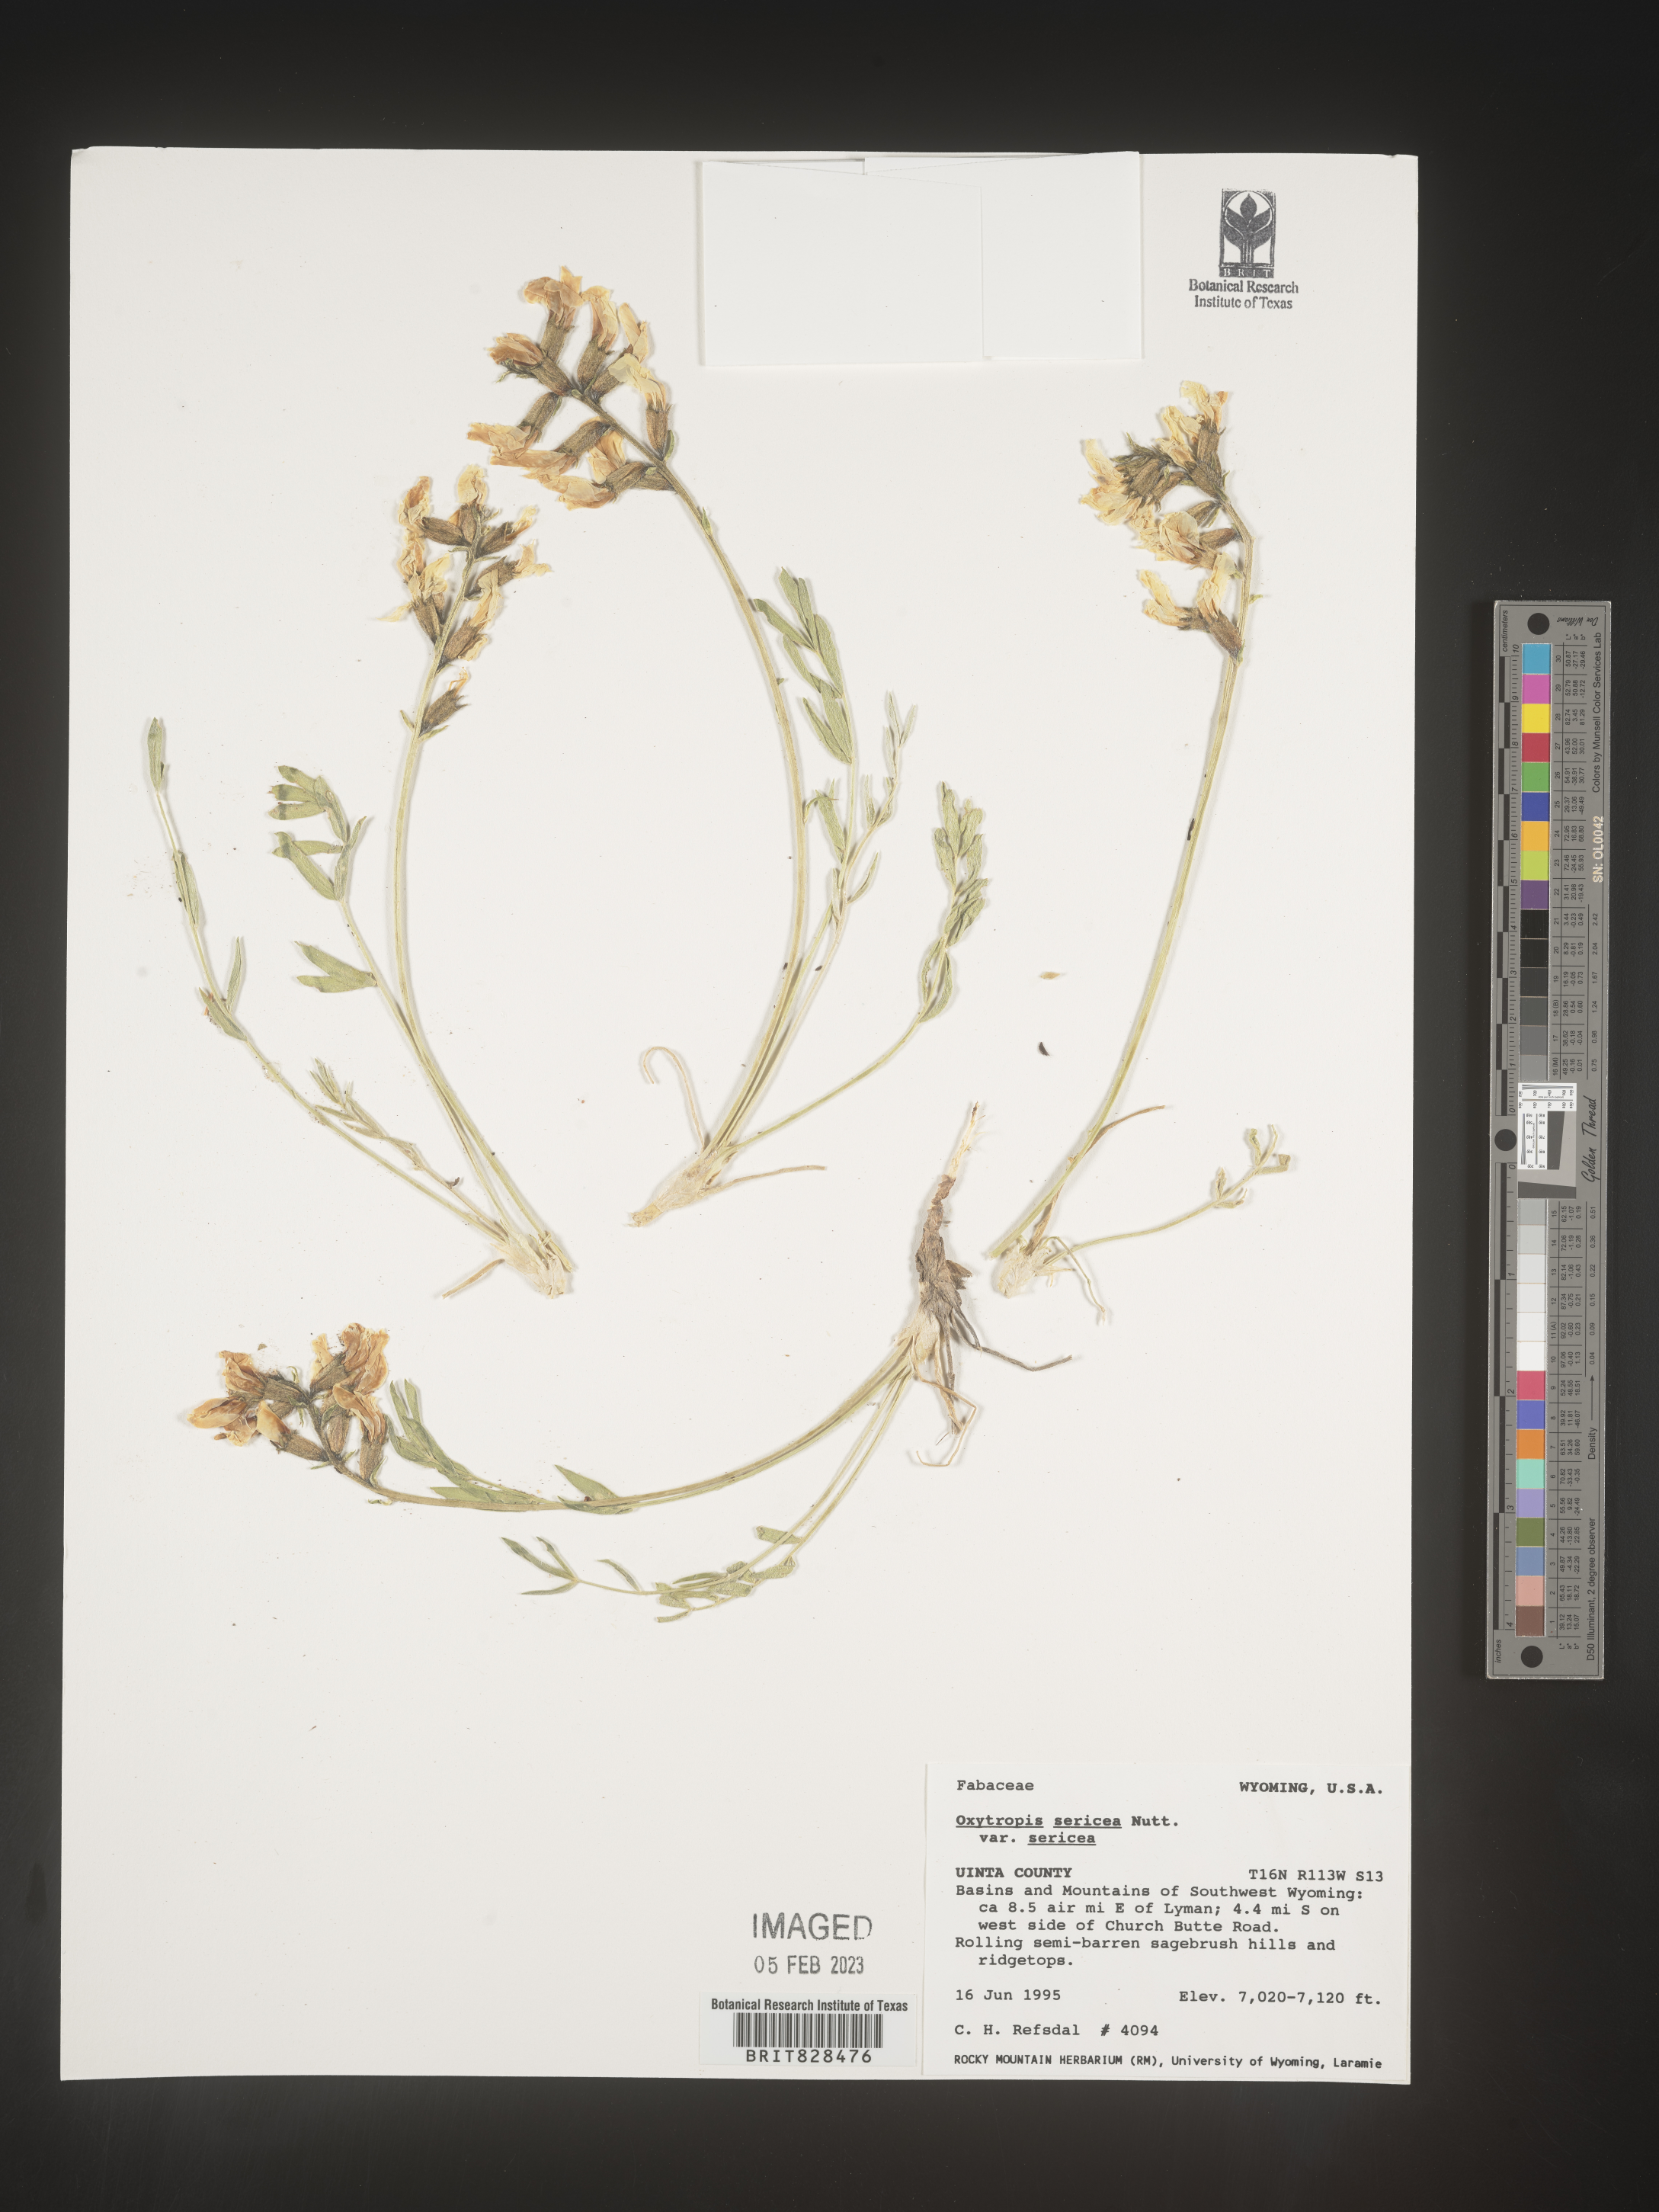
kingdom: Plantae
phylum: Tracheophyta
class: Magnoliopsida
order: Fabales
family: Fabaceae
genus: Oxytropis
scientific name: Oxytropis sericea
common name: Silky locoweed
